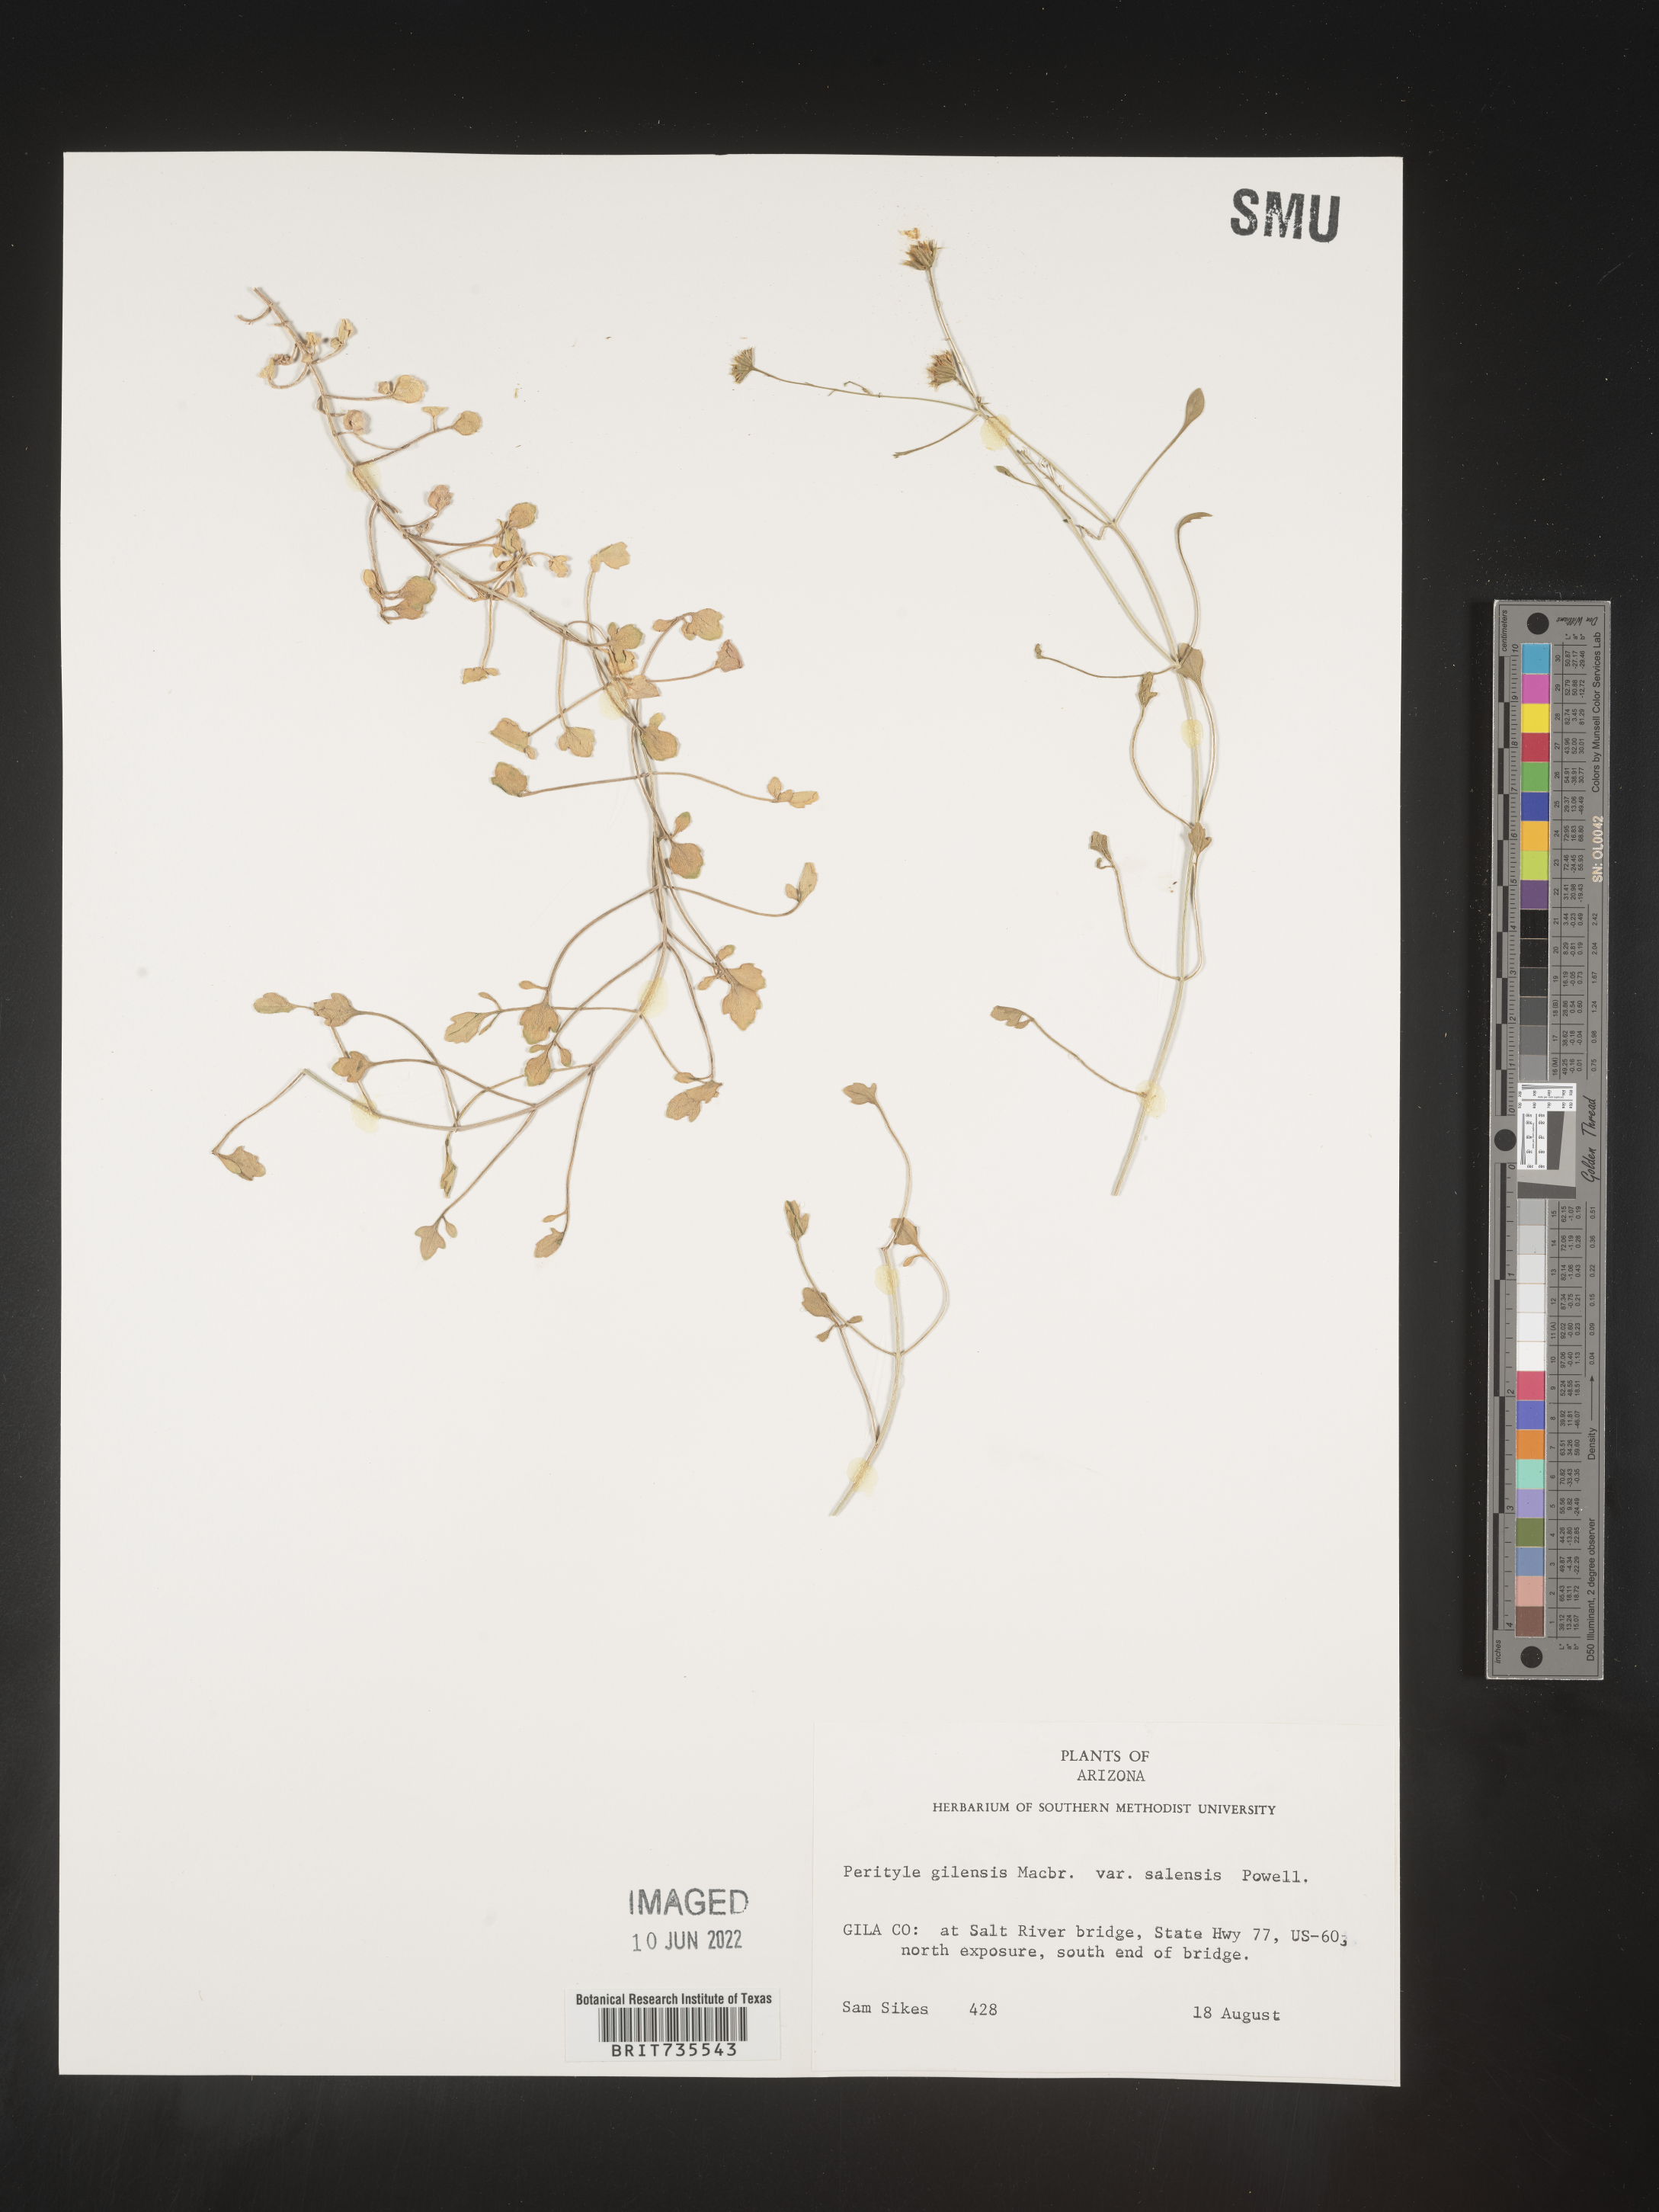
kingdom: Plantae
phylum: Tracheophyta
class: Magnoliopsida
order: Asterales
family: Asteraceae
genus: Perityle
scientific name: Perityle
